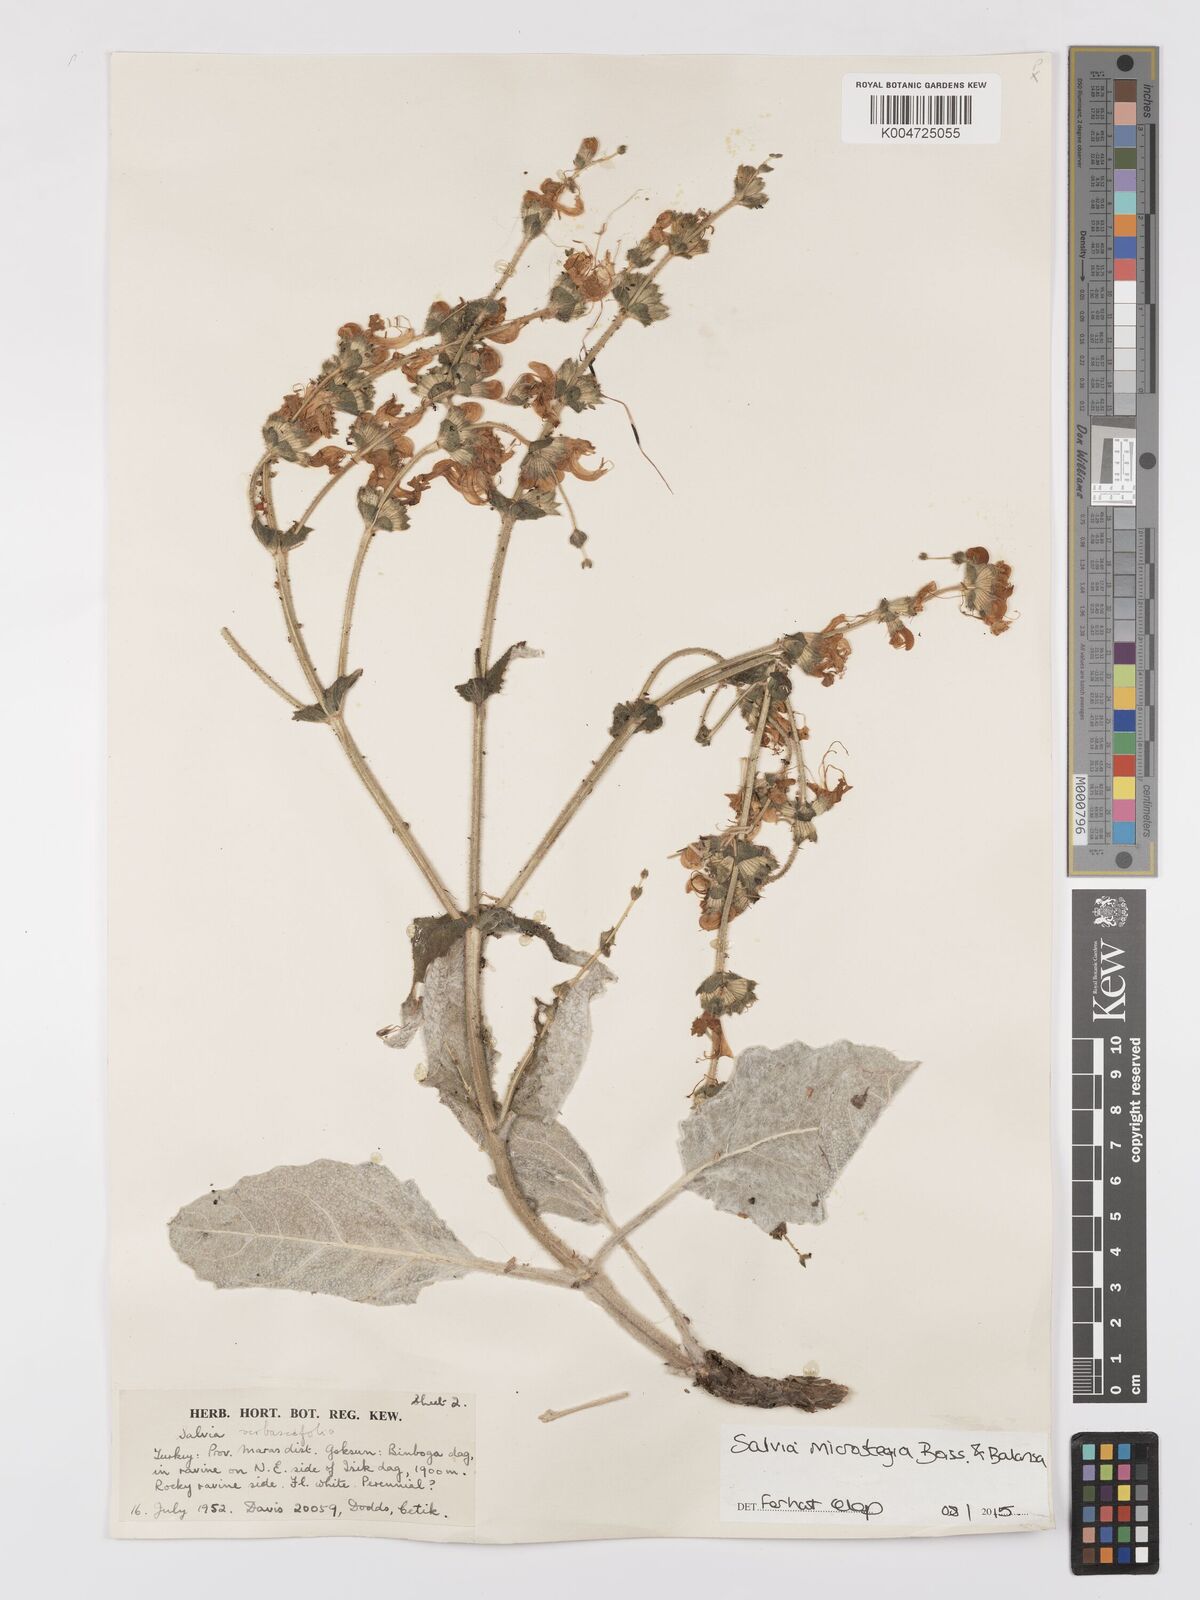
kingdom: Plantae
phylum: Tracheophyta
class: Magnoliopsida
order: Lamiales
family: Lamiaceae
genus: Salvia
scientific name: Salvia microstegia
